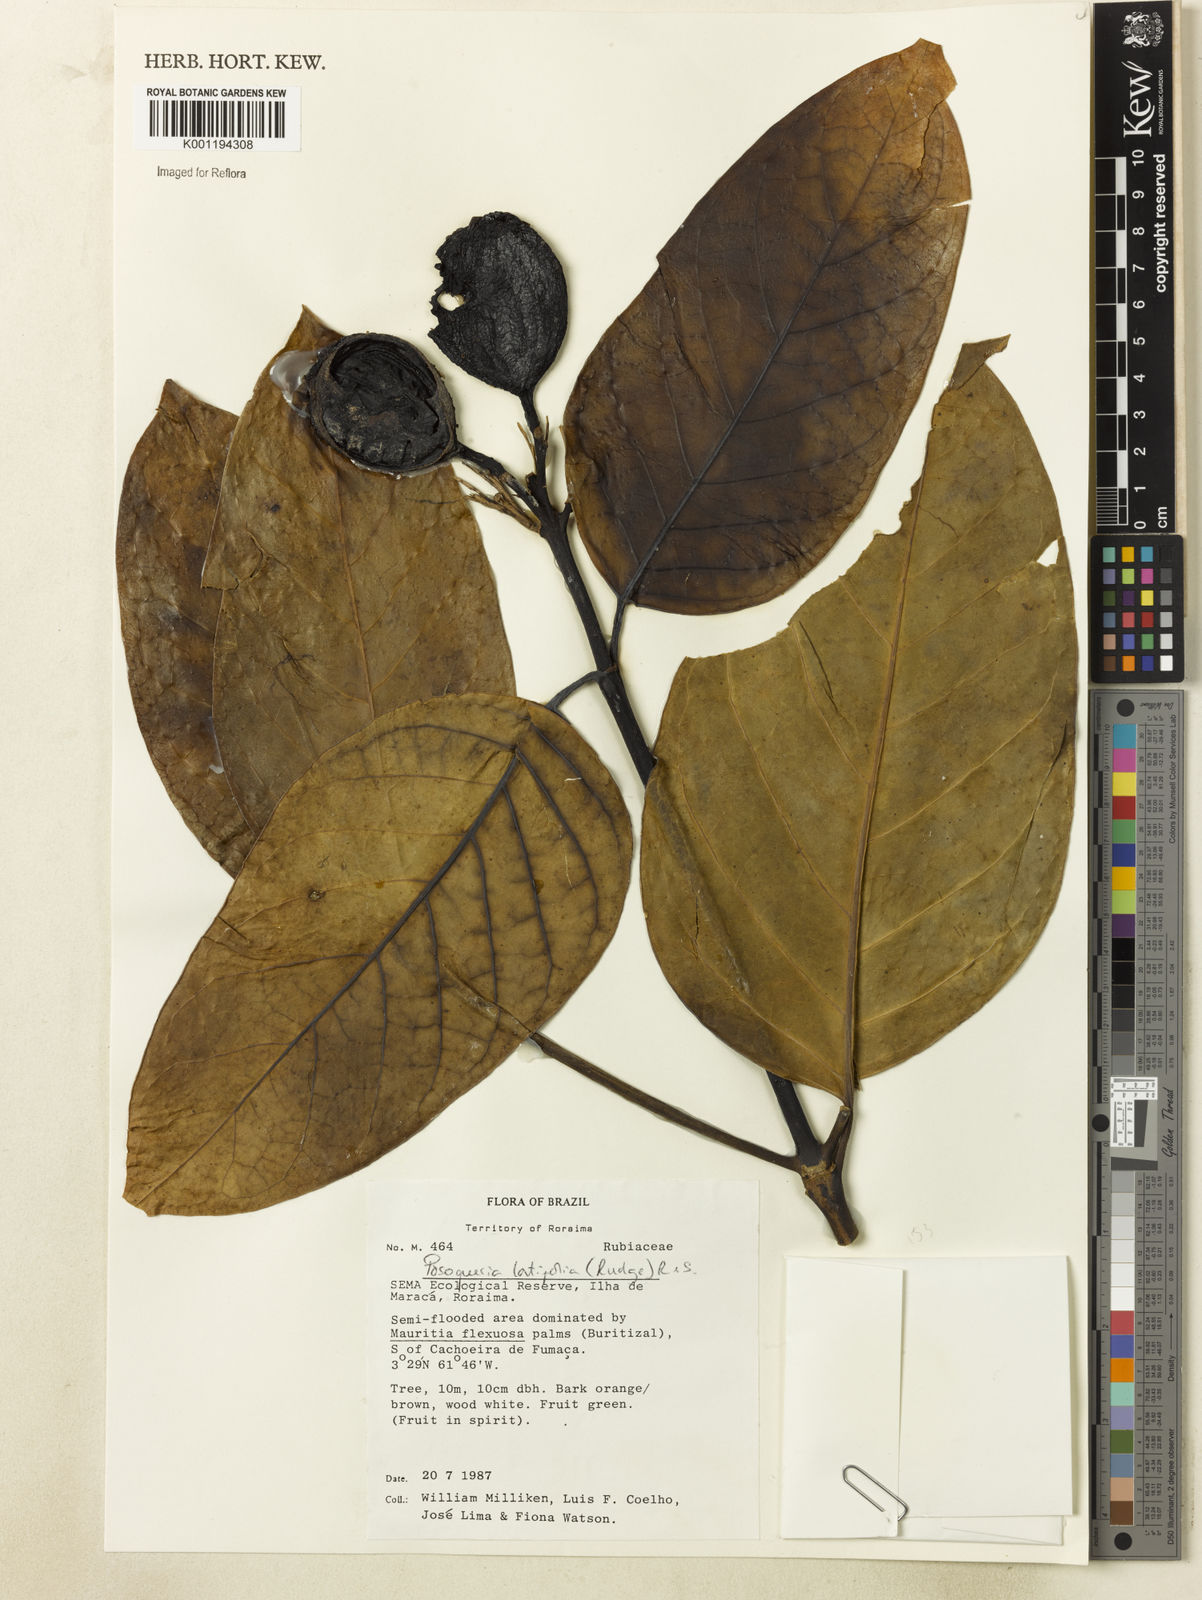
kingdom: Plantae
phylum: Tracheophyta
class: Magnoliopsida
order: Gentianales
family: Rubiaceae
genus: Posoqueria
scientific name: Posoqueria latifolia
